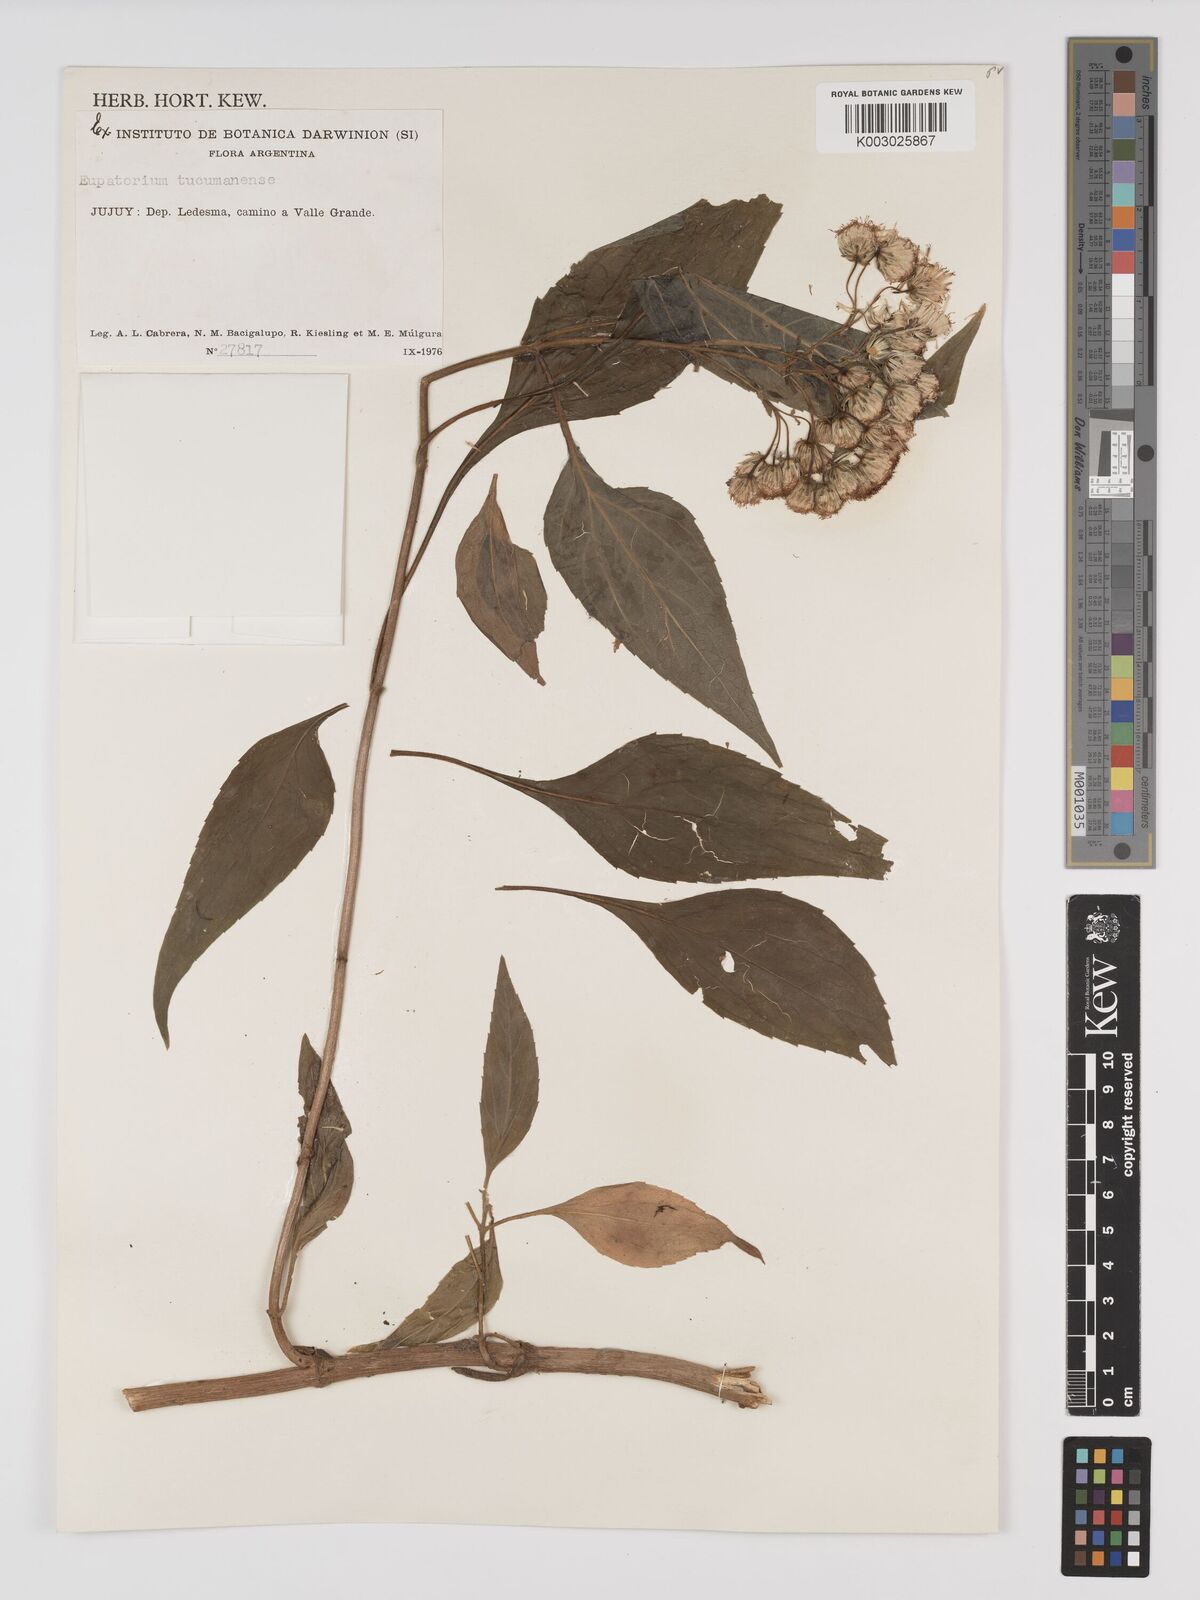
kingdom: Plantae
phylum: Tracheophyta
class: Magnoliopsida
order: Asterales
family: Asteraceae
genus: Ayapanopsis
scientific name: Ayapanopsis tucumanensis
